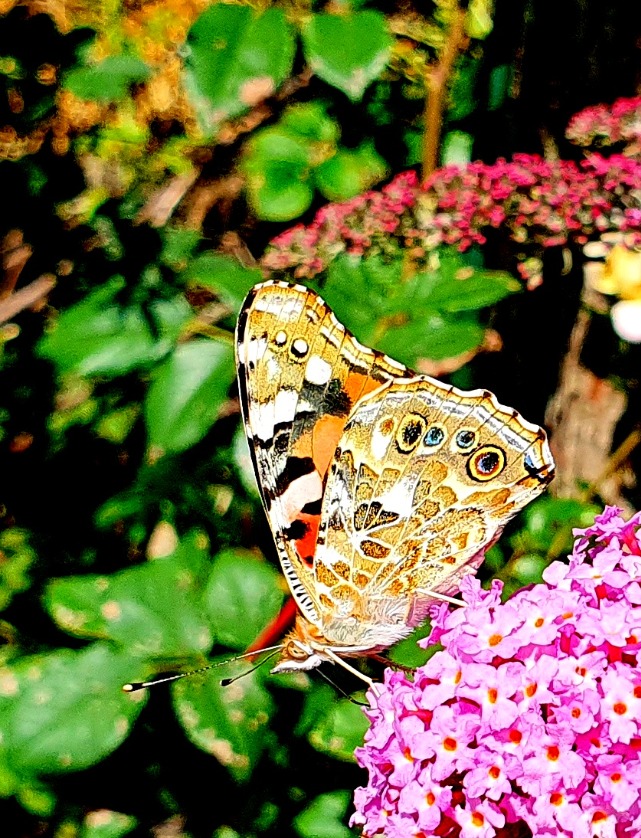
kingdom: Animalia
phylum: Arthropoda
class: Insecta
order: Lepidoptera
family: Nymphalidae
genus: Vanessa
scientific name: Vanessa cardui
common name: Tidselsommerfugl
